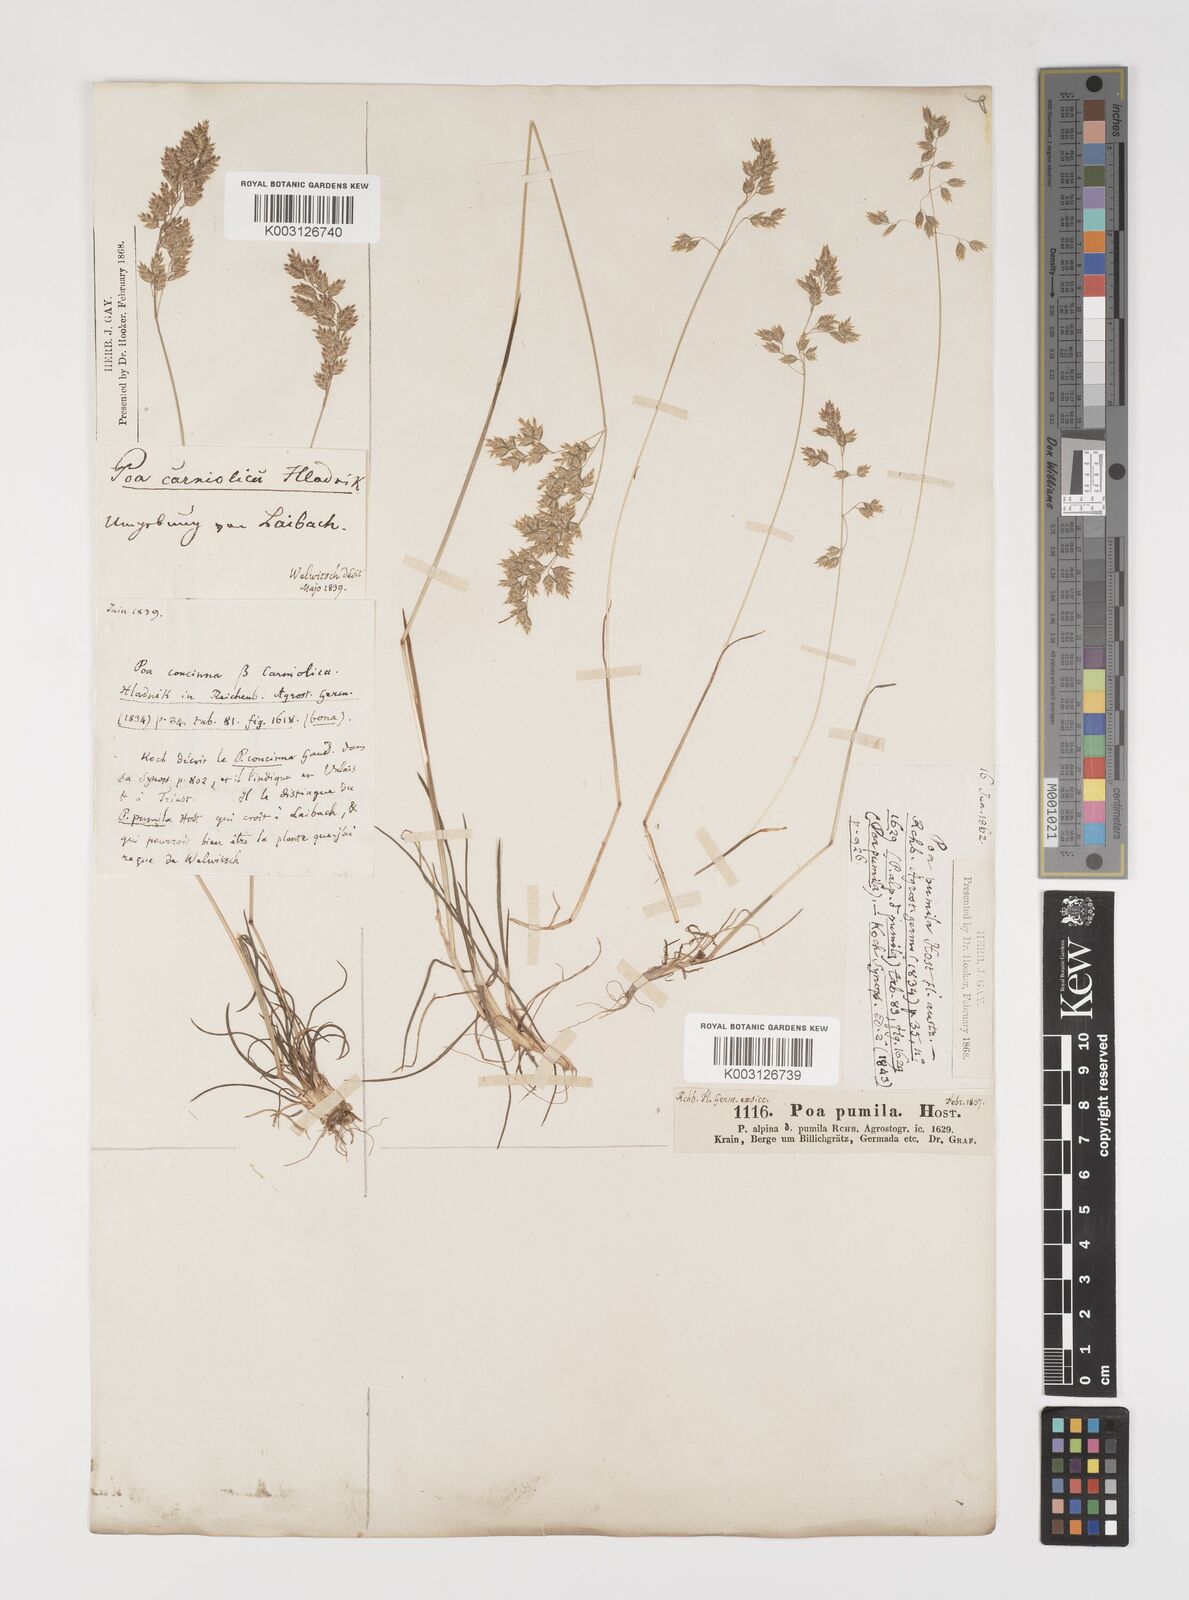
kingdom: Plantae
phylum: Tracheophyta
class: Liliopsida
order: Poales
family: Poaceae
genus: Poa
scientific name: Poa bulbosa
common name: Bulbous bluegrass
